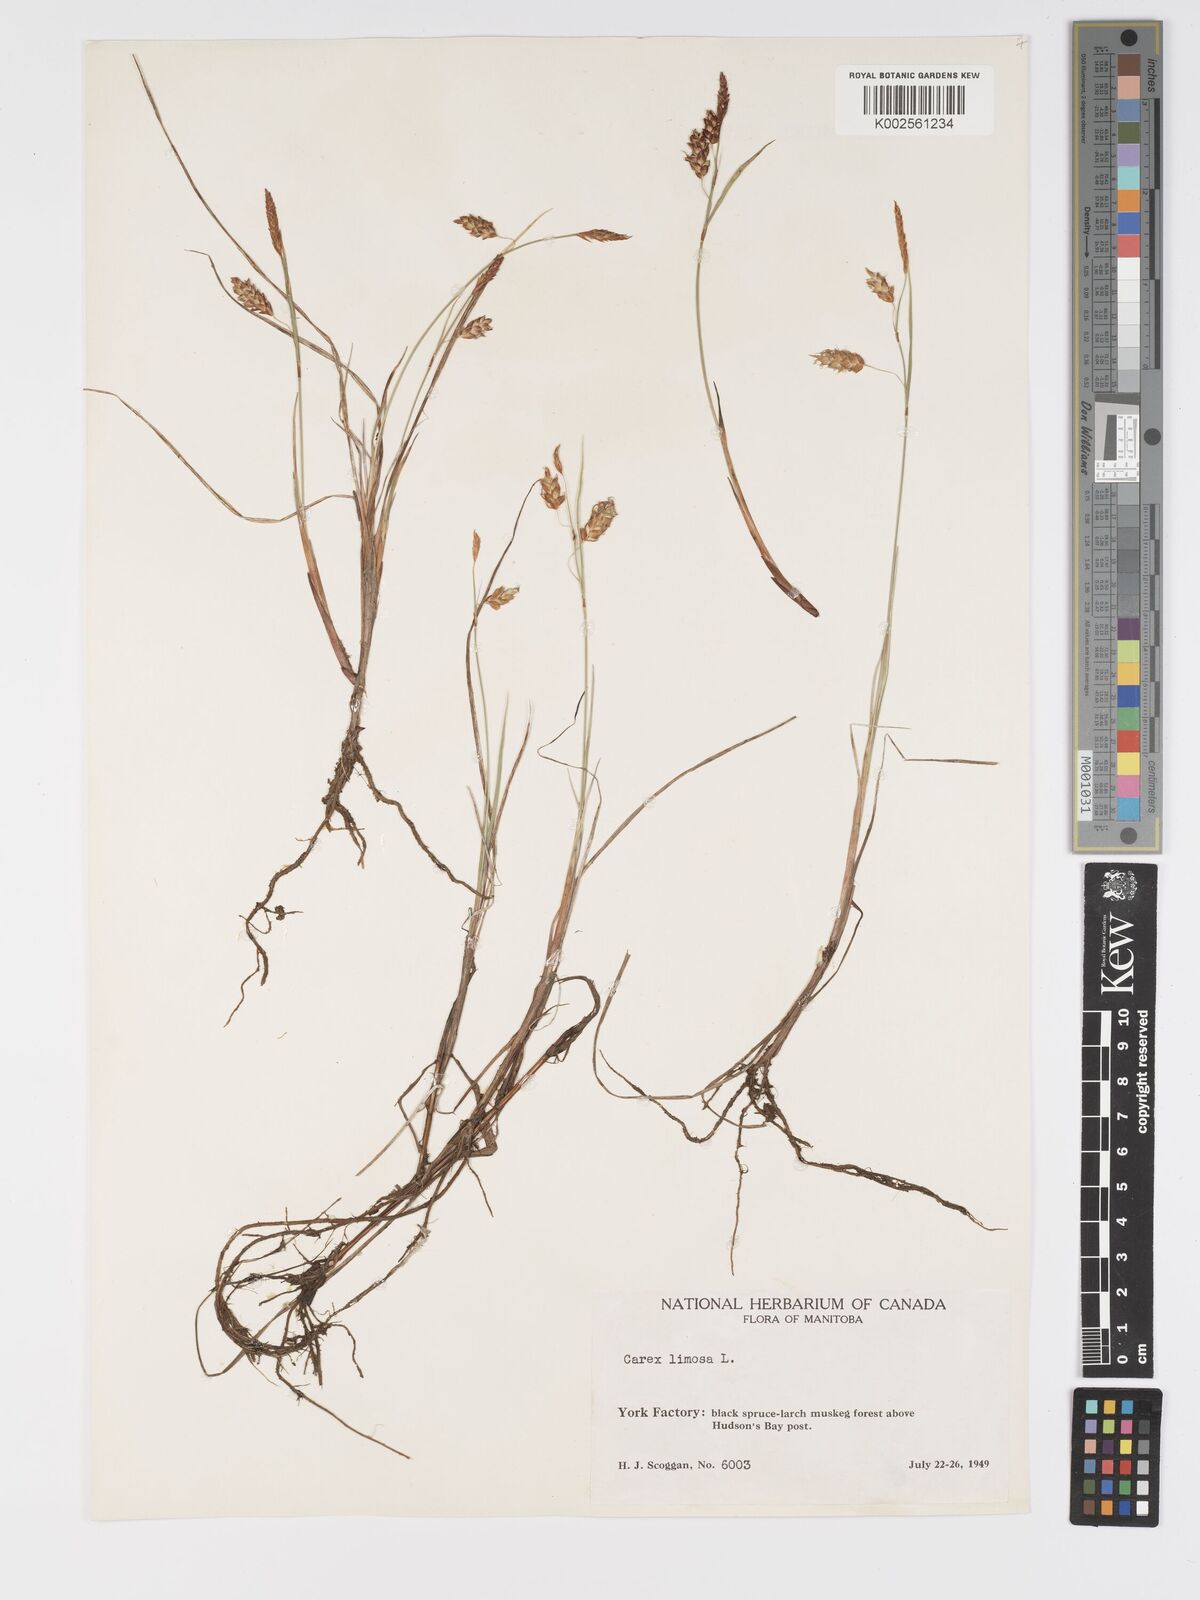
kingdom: Plantae
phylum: Tracheophyta
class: Liliopsida
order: Poales
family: Cyperaceae
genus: Carex
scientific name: Carex limosa
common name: Bog sedge
